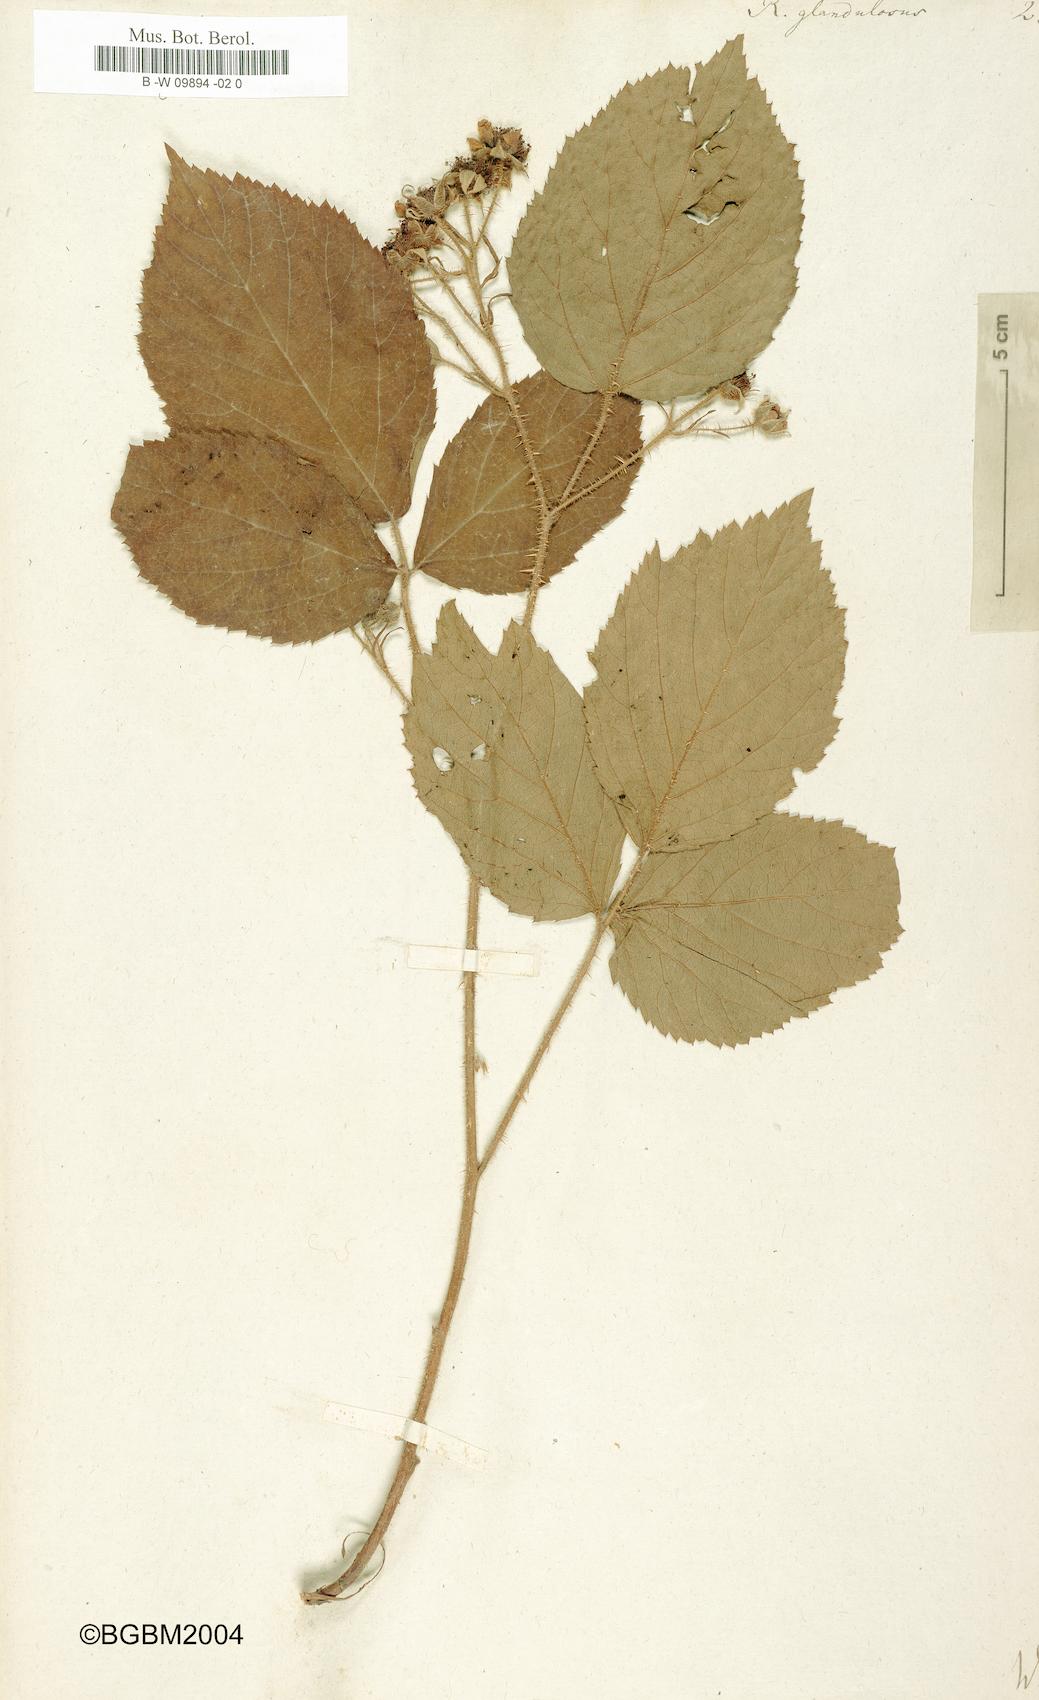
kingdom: Plantae
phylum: Tracheophyta
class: Magnoliopsida
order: Rosales
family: Rosaceae
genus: Rubus
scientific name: Rubus
